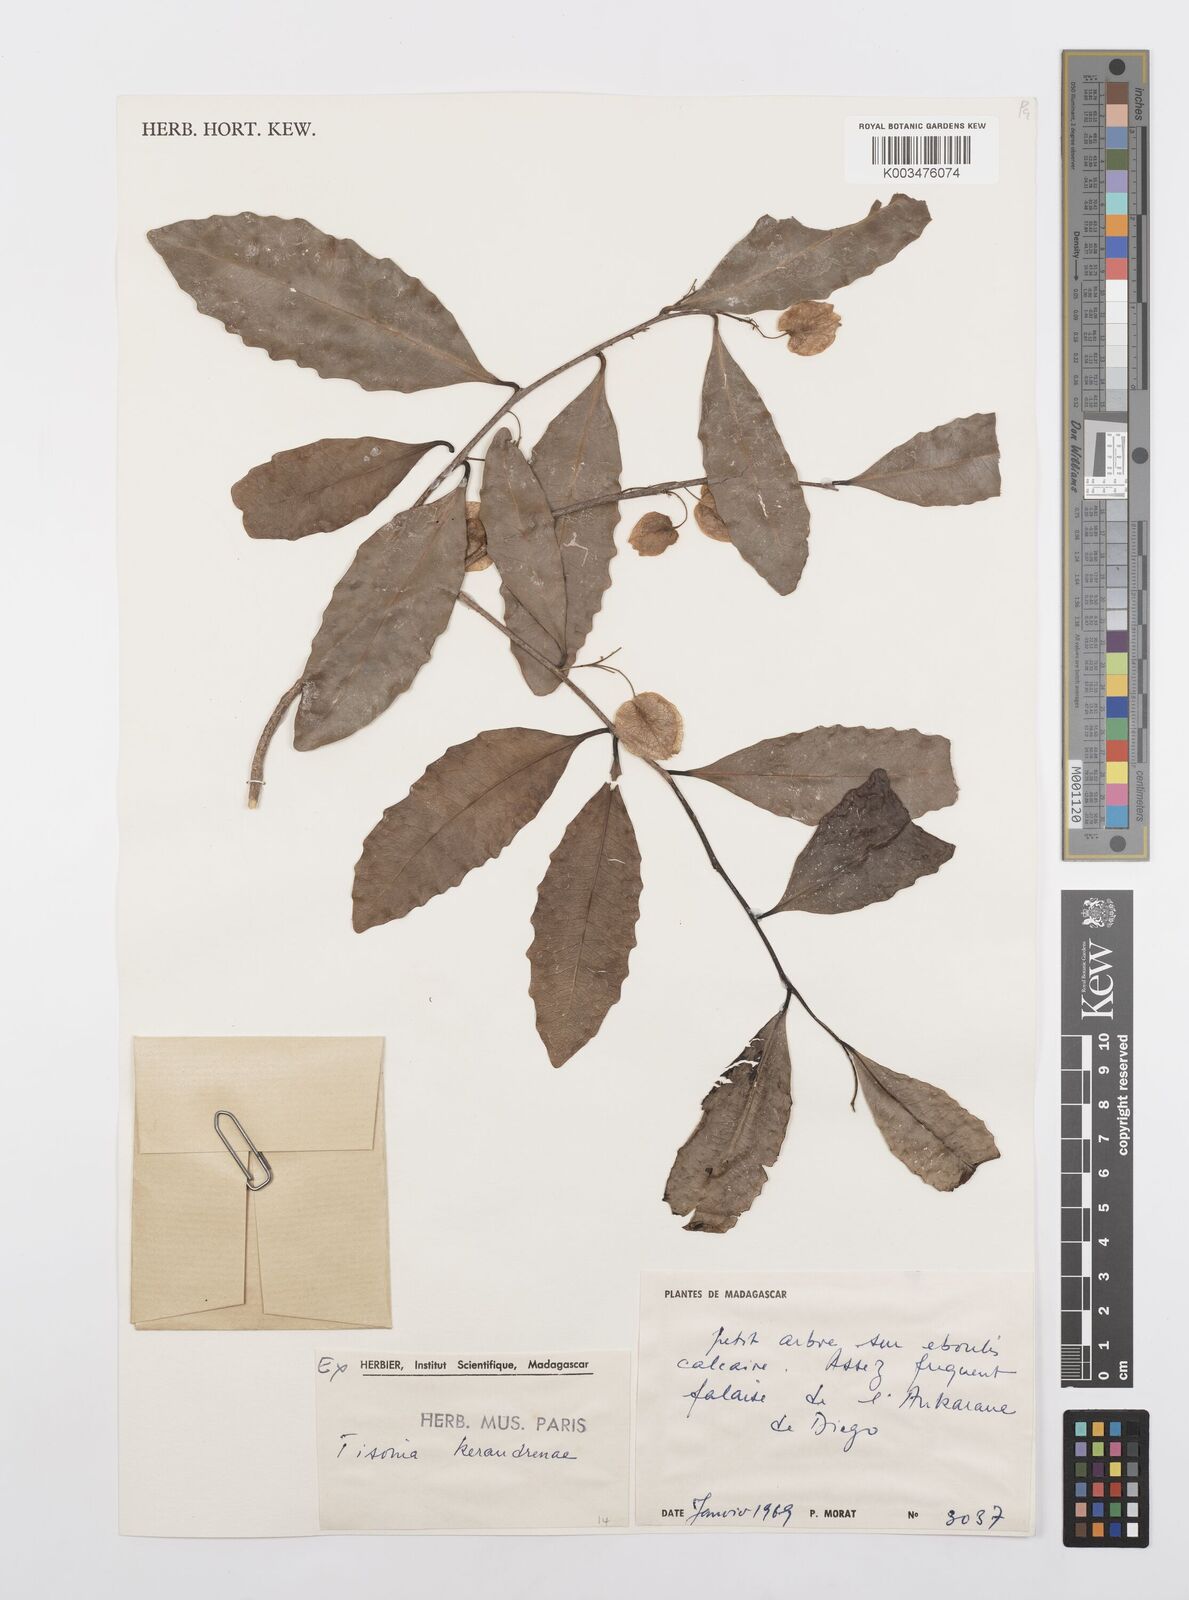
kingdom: Plantae
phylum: Tracheophyta
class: Magnoliopsida
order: Malpighiales
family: Salicaceae
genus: Tisonia
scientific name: Tisonia keraudrenae
